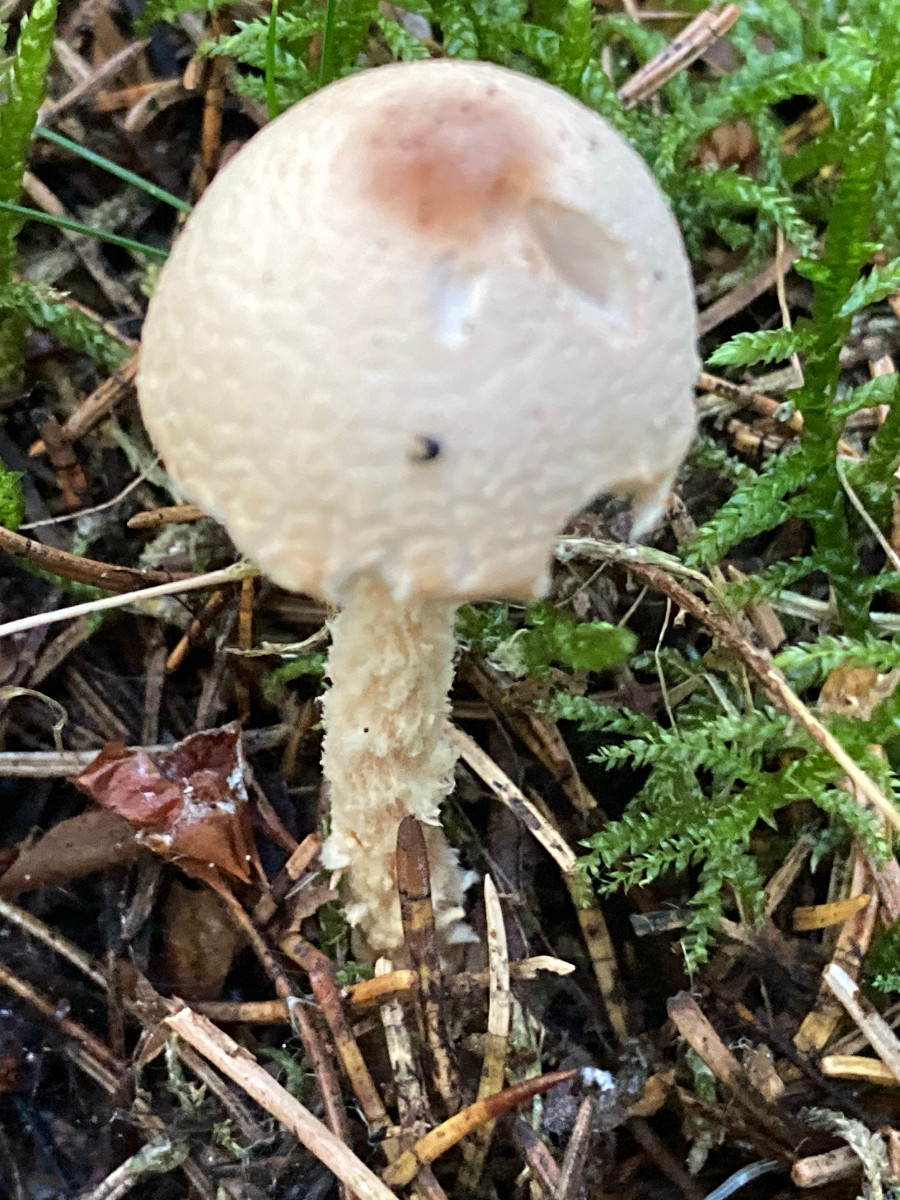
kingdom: Fungi
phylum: Basidiomycota
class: Agaricomycetes
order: Agaricales
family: Agaricaceae
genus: Lepiota
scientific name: Lepiota magnispora
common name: gulfnugget parasolhat
